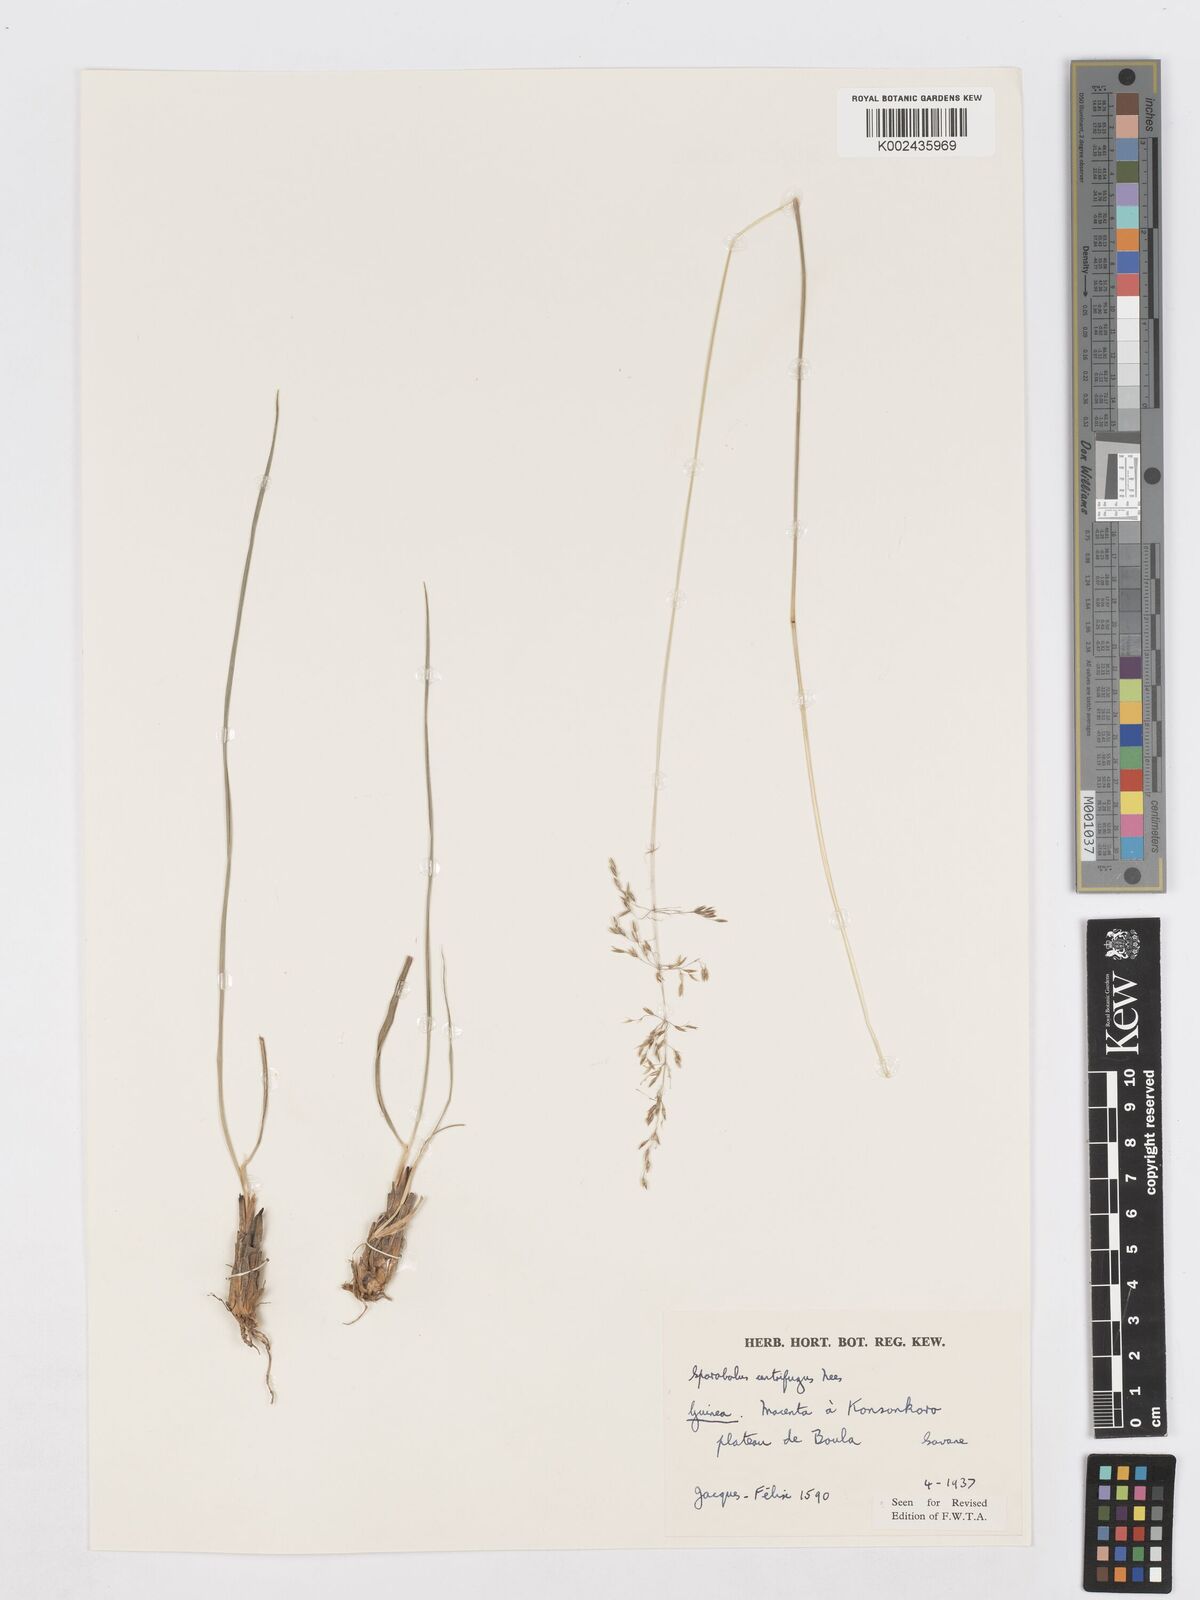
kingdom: Plantae
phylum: Tracheophyta
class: Liliopsida
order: Poales
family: Poaceae
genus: Sporobolus
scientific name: Sporobolus subulatus
